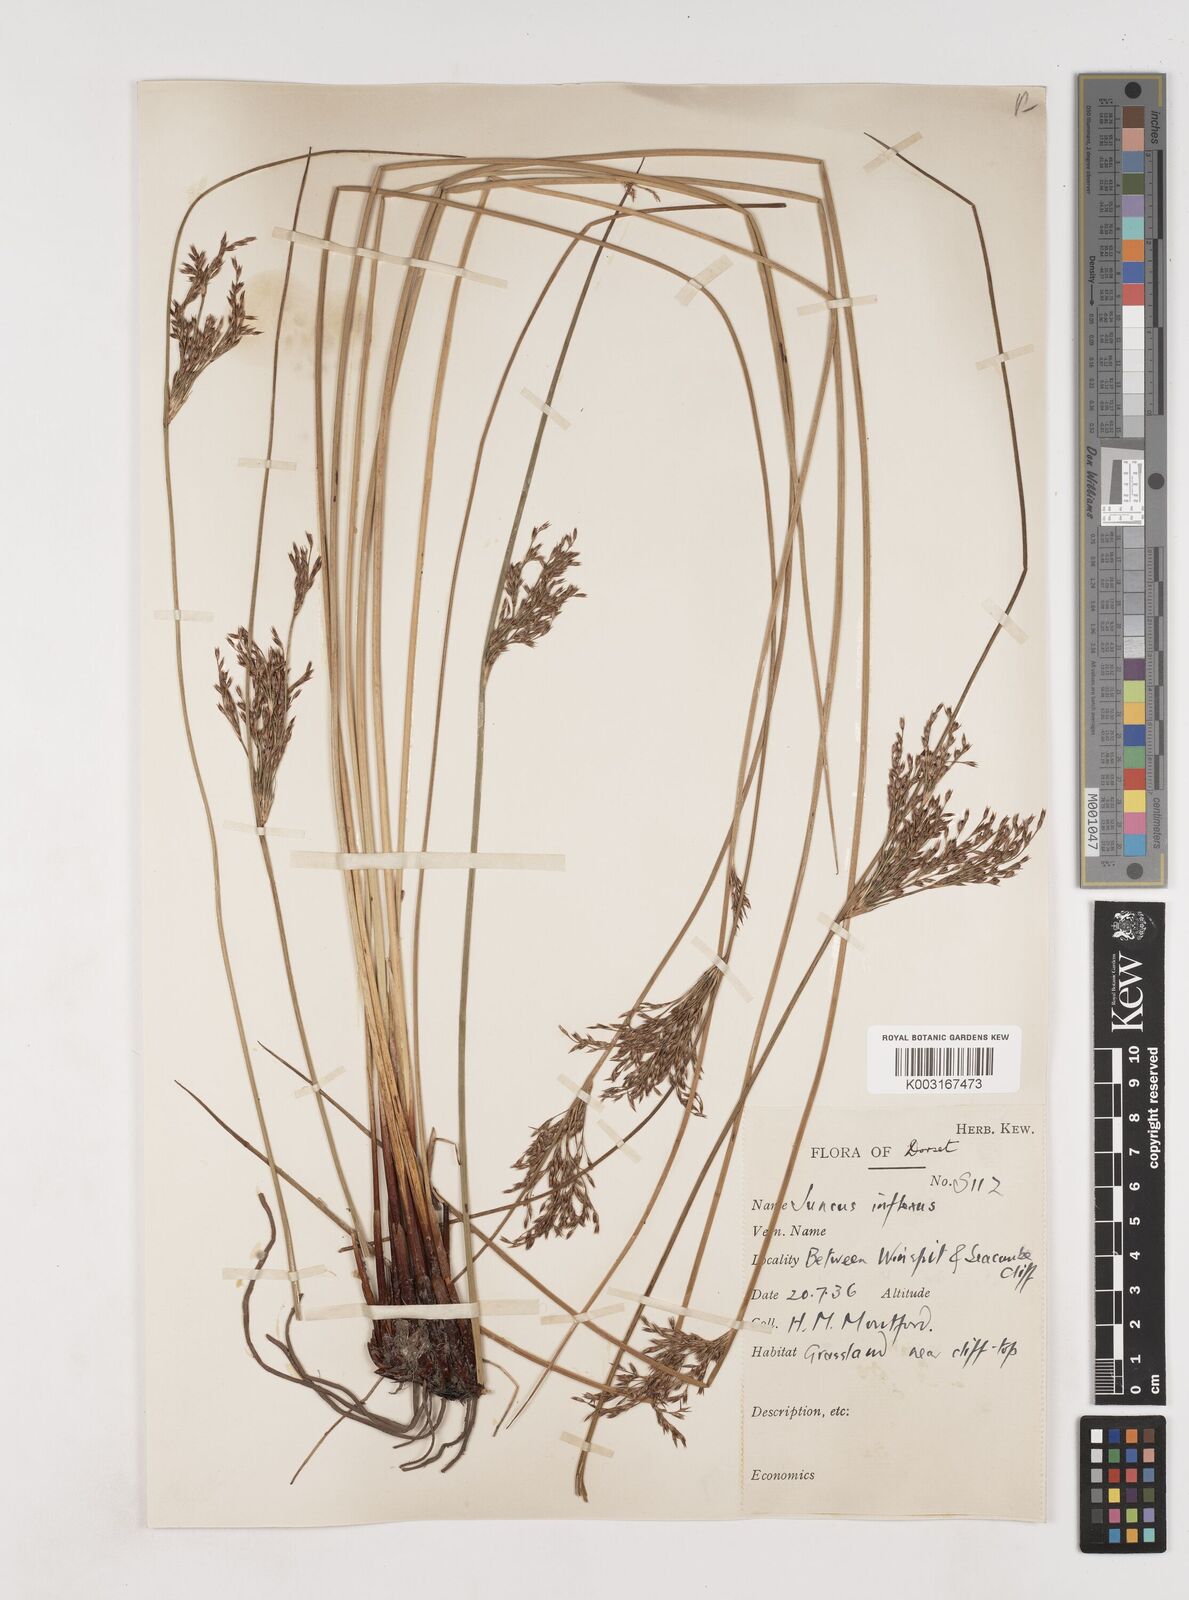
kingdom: Plantae
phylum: Tracheophyta
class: Liliopsida
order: Poales
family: Juncaceae
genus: Juncus
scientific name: Juncus inflexus
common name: Hard rush
